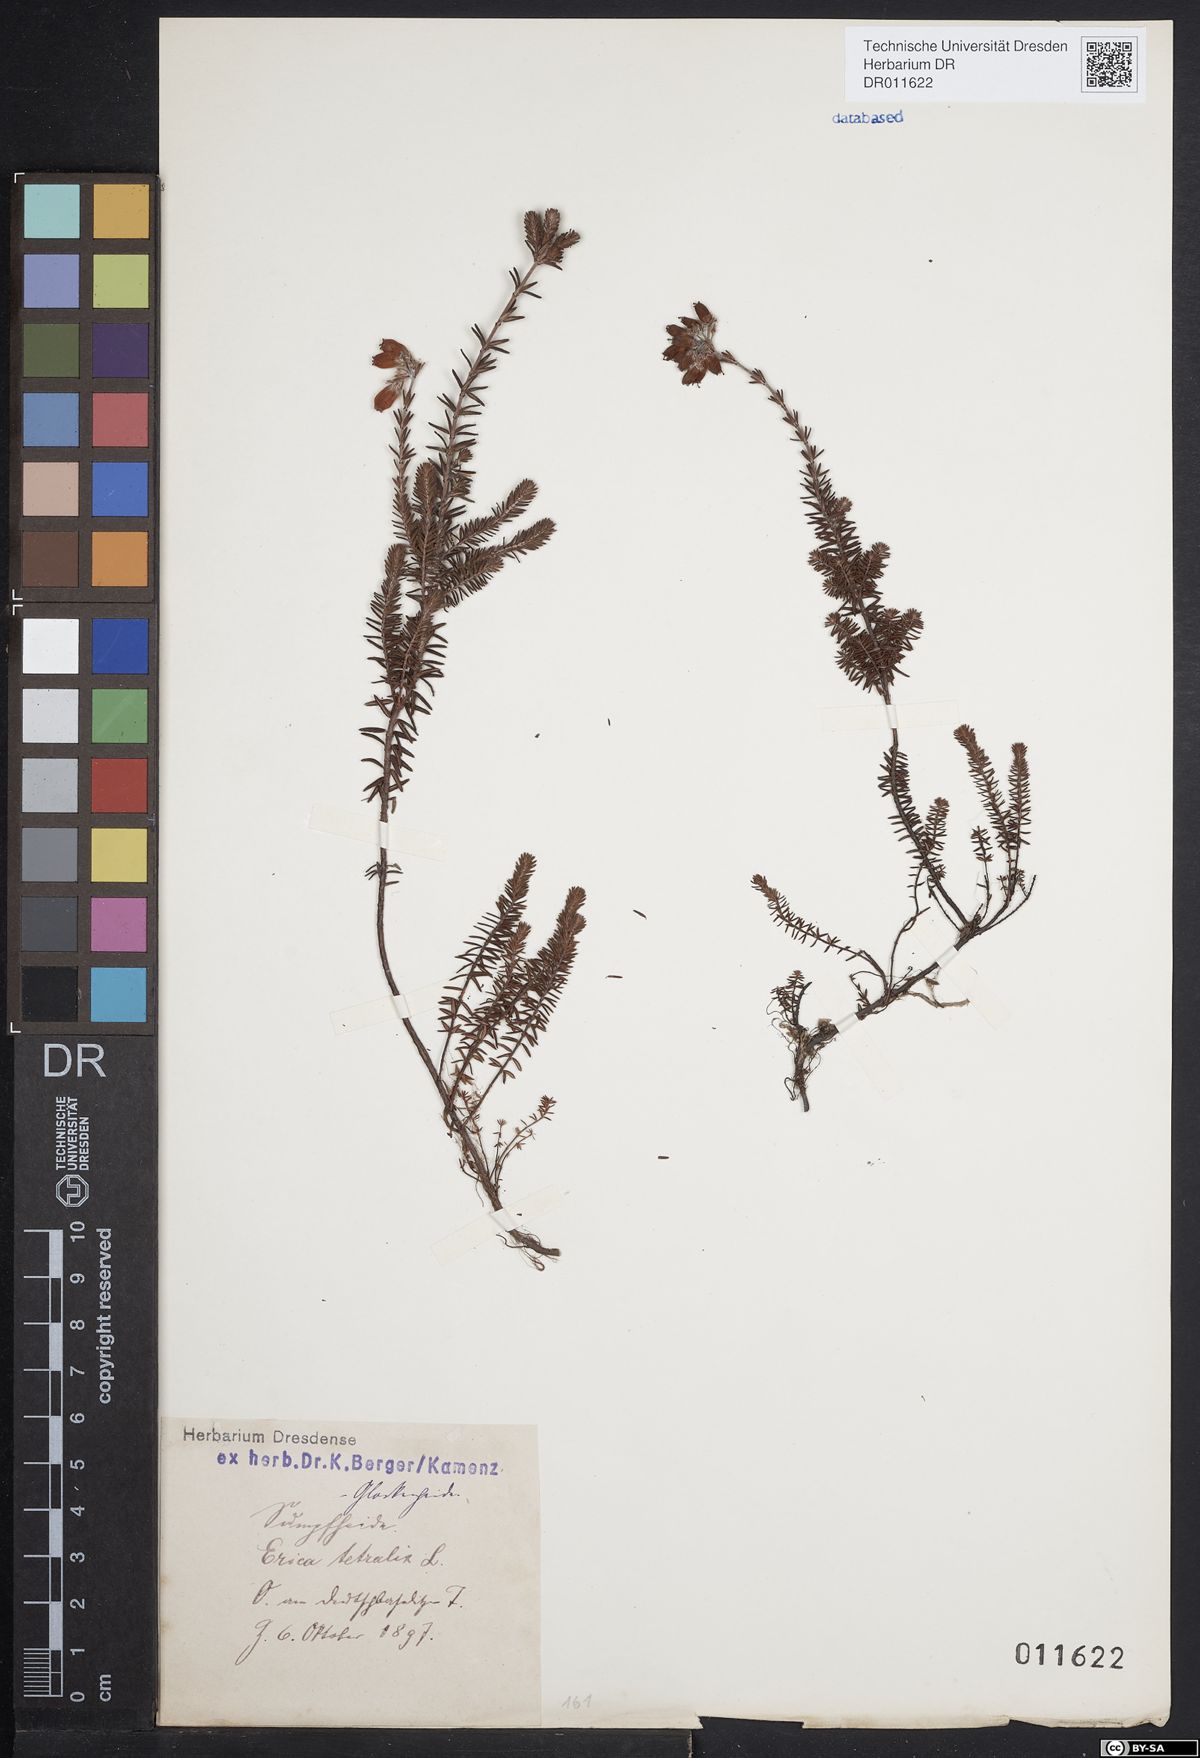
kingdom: Plantae
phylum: Tracheophyta
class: Magnoliopsida
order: Ericales
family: Ericaceae
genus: Erica
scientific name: Erica tetralix
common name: Cross-leaved heath
